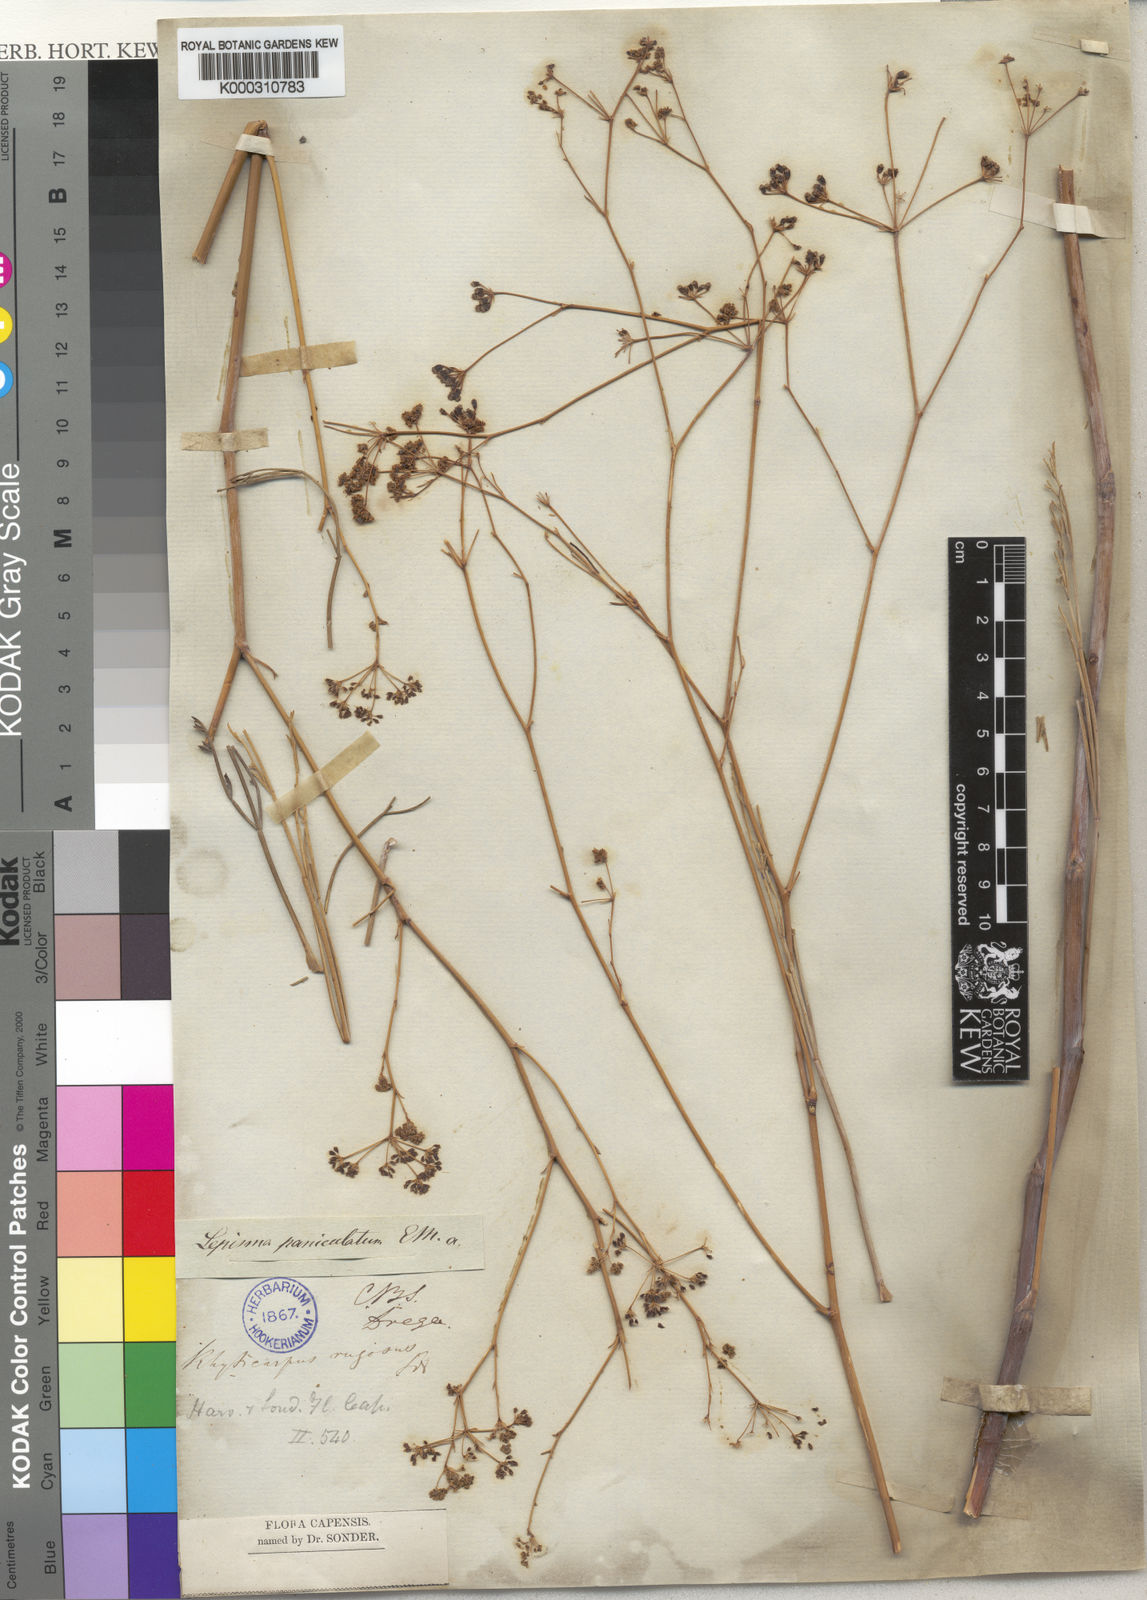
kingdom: Plantae
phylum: Tracheophyta
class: Magnoliopsida
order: Apiales
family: Apiaceae
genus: Anginon
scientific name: Anginon paniculatum
